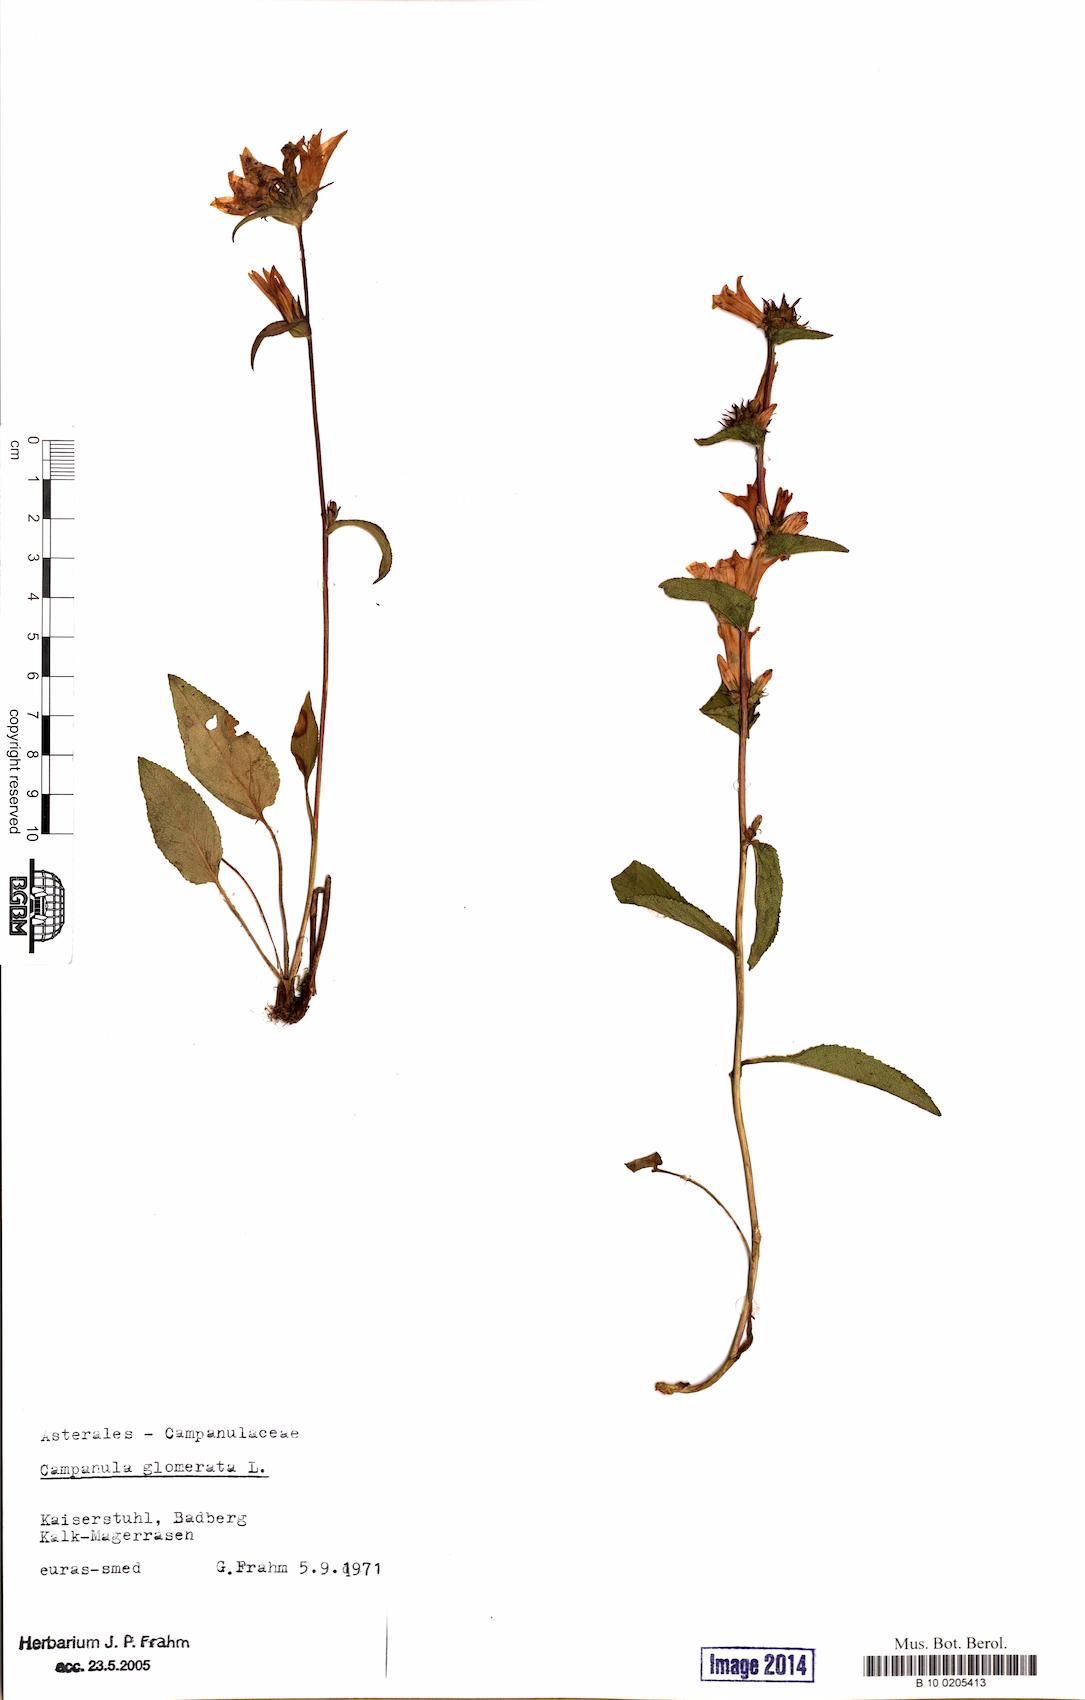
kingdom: Plantae
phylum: Tracheophyta
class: Magnoliopsida
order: Asterales
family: Campanulaceae
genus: Campanula
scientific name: Campanula glomerata
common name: Clustered bellflower
